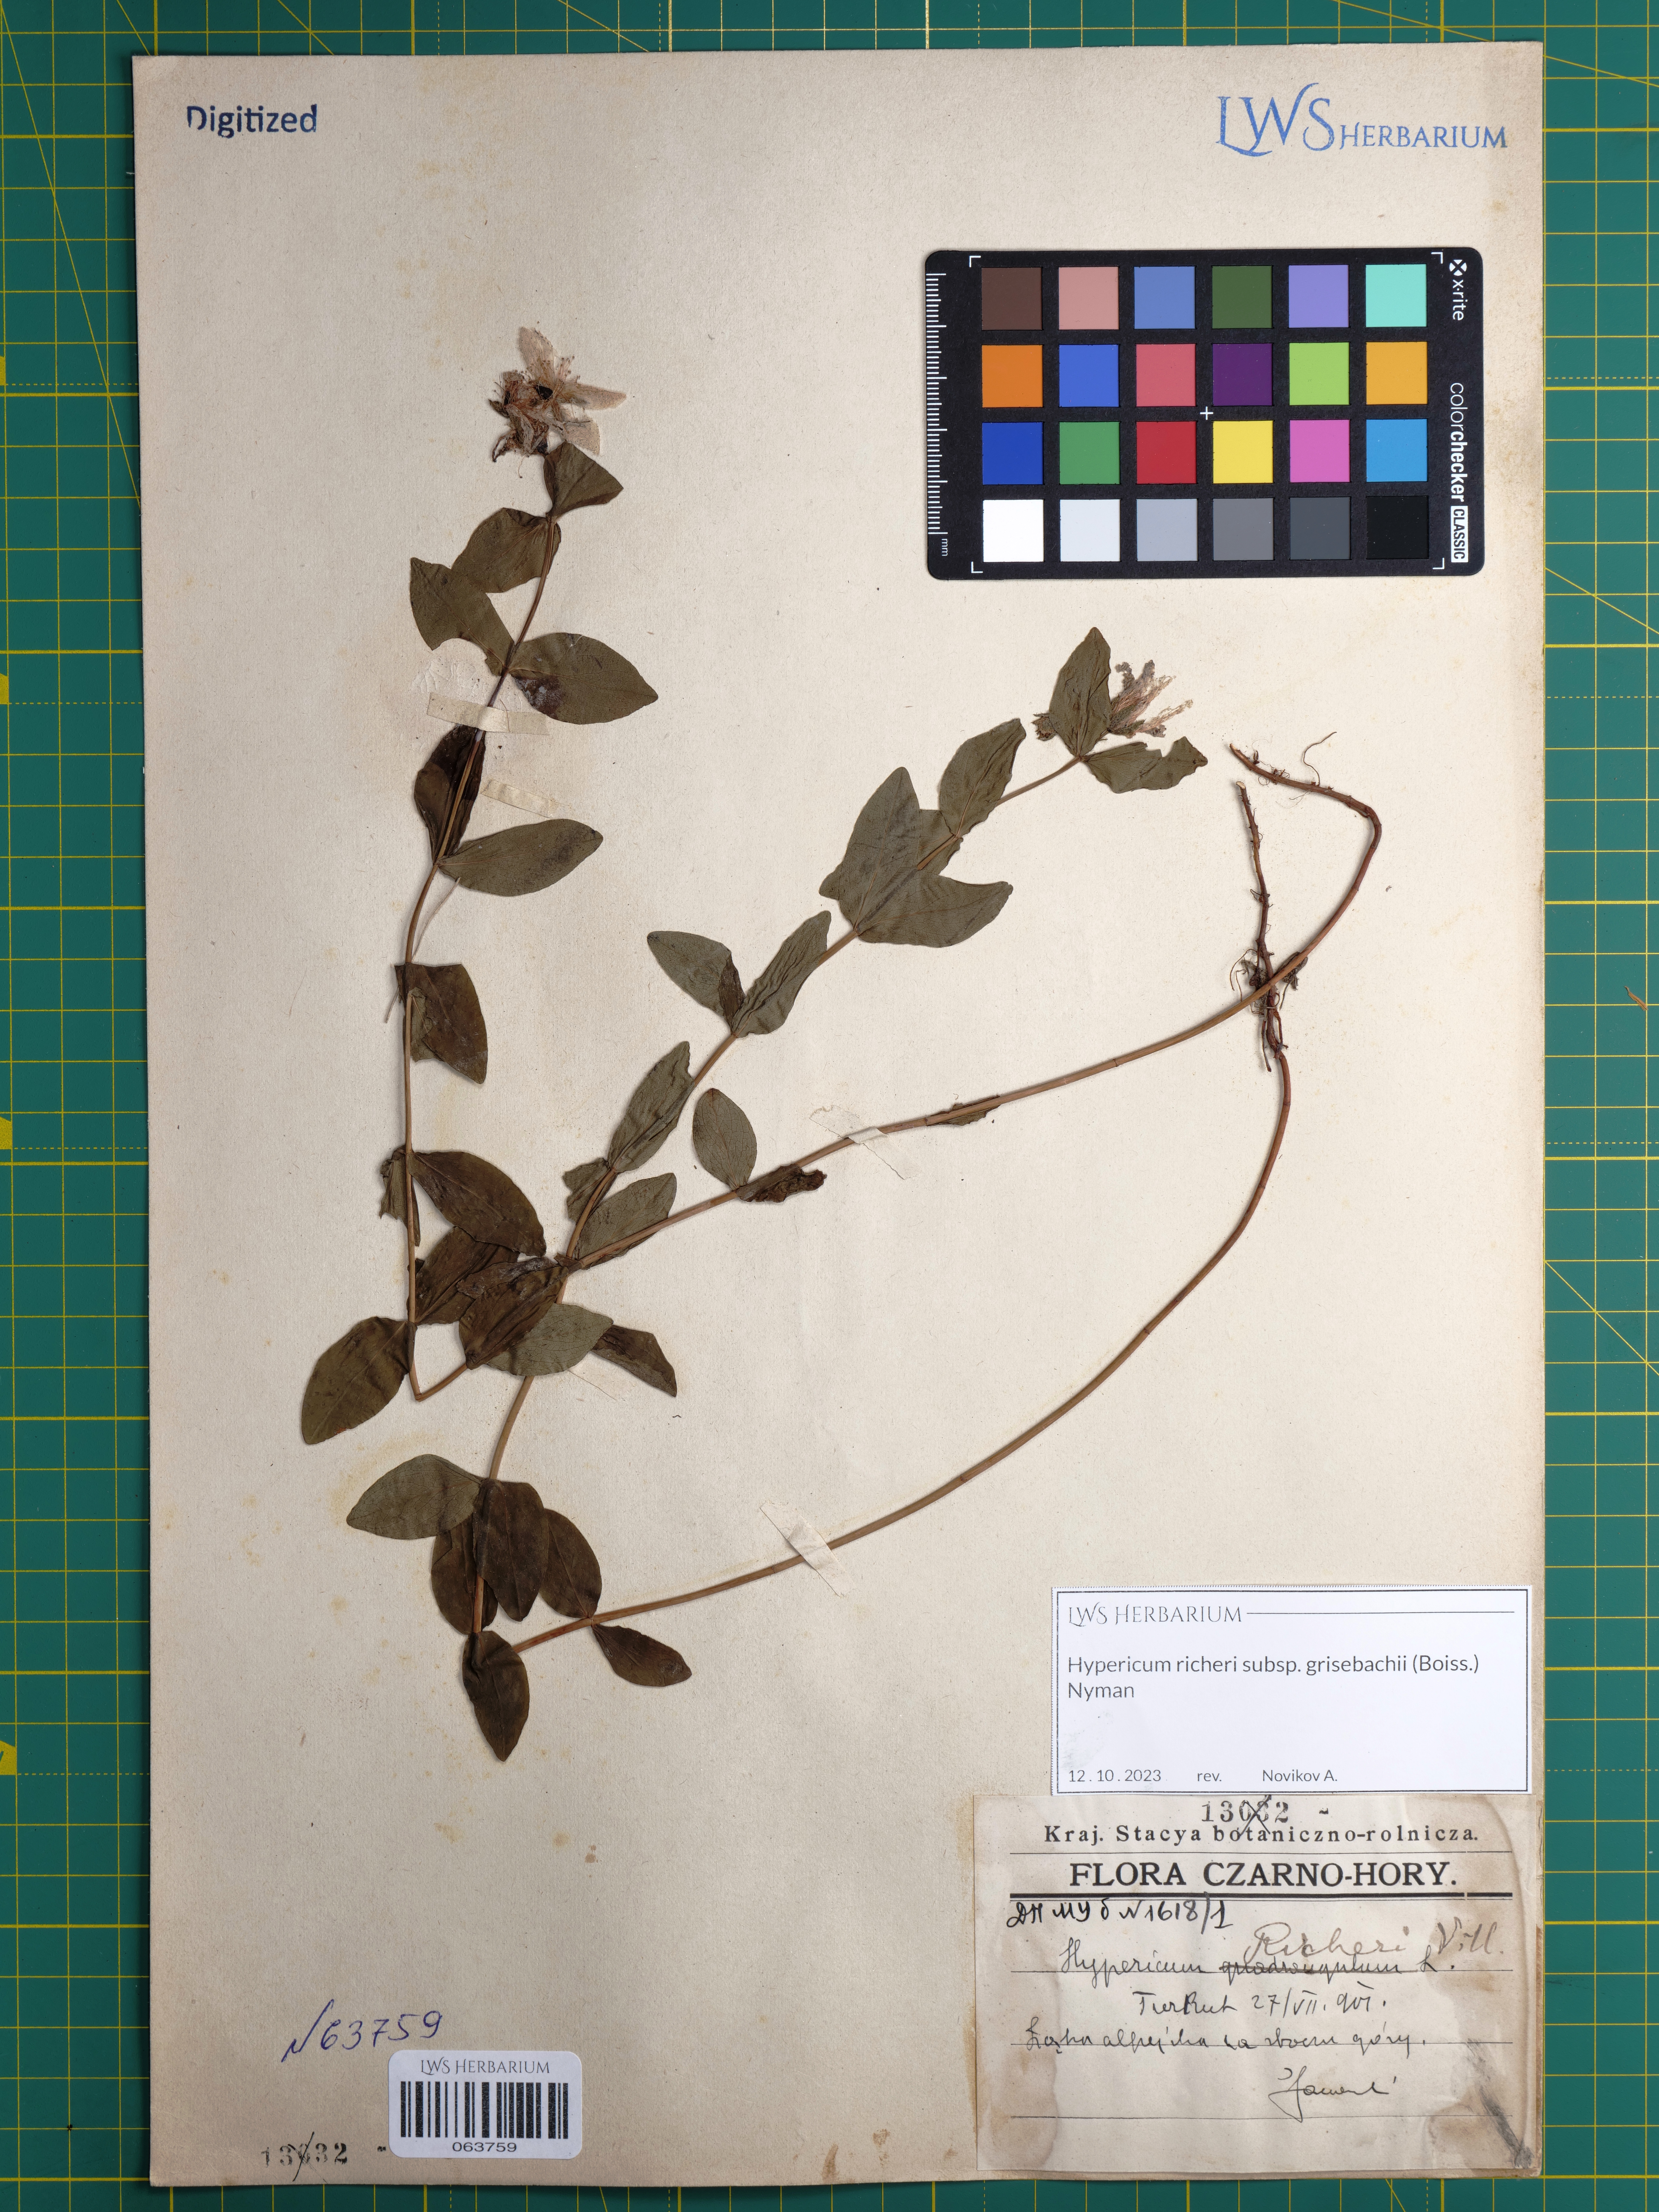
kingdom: Plantae
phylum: Tracheophyta
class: Magnoliopsida
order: Malpighiales
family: Hypericaceae
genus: Hypericum
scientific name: Hypericum richeri
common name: Alpine st john's-wort
